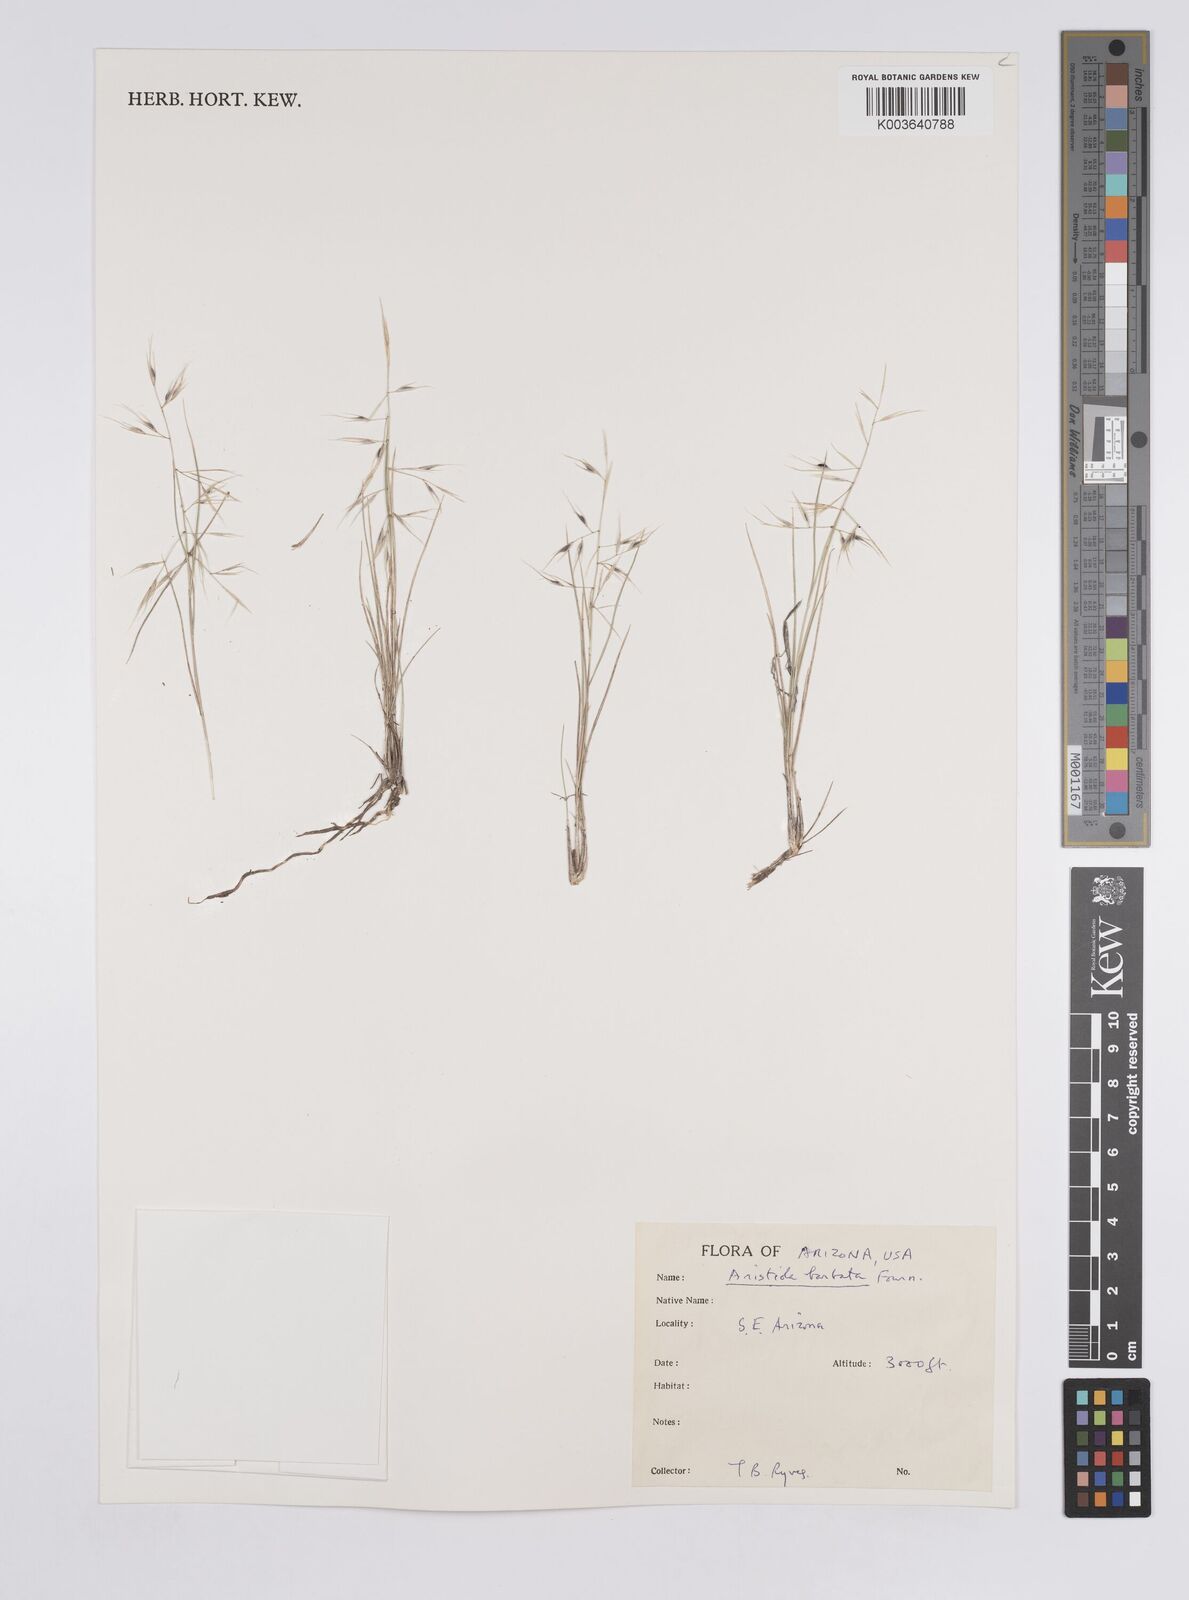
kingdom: Plantae
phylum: Tracheophyta
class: Liliopsida
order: Poales
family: Poaceae
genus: Aristida
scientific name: Aristida havardii
